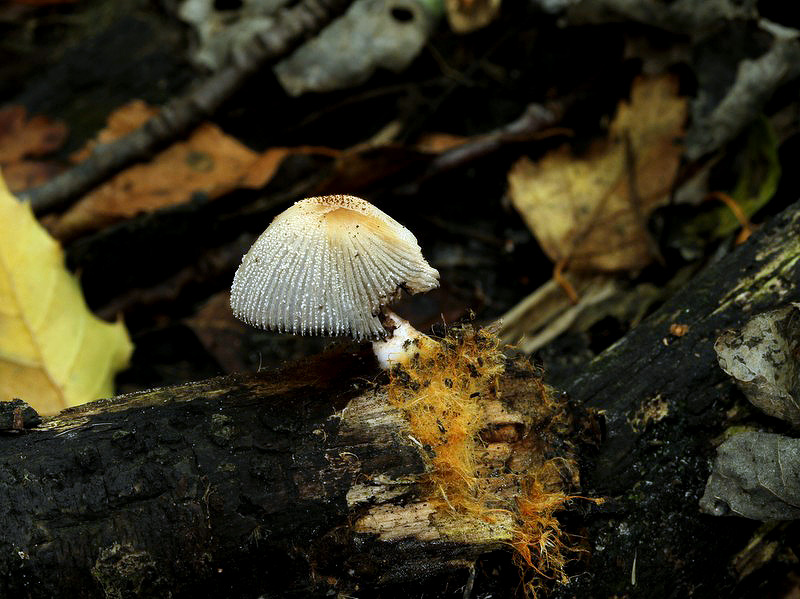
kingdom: Fungi
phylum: Basidiomycota
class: Agaricomycetes
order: Agaricales
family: Psathyrellaceae
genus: Coprinellus
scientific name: Coprinellus xanthothrix
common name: gultrådet blækhat
